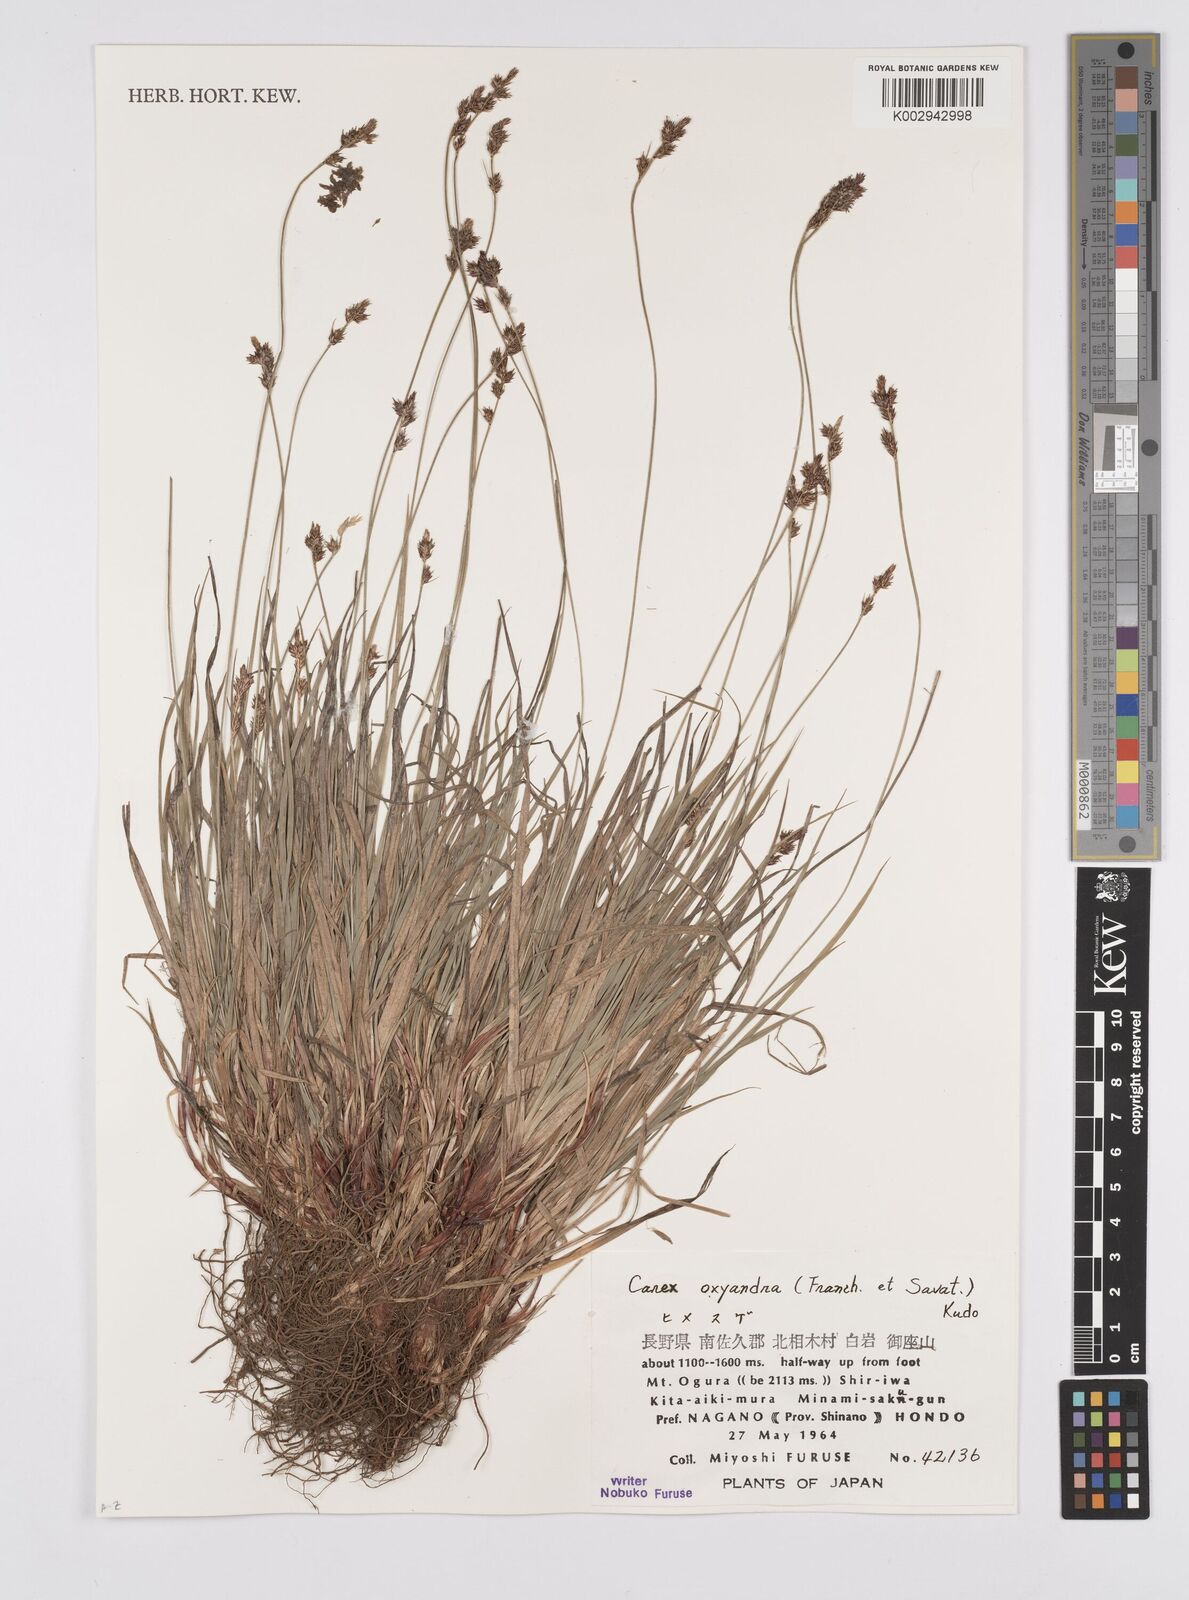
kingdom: Plantae
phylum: Tracheophyta
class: Liliopsida
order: Poales
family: Cyperaceae
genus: Carex
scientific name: Carex oxyandra
